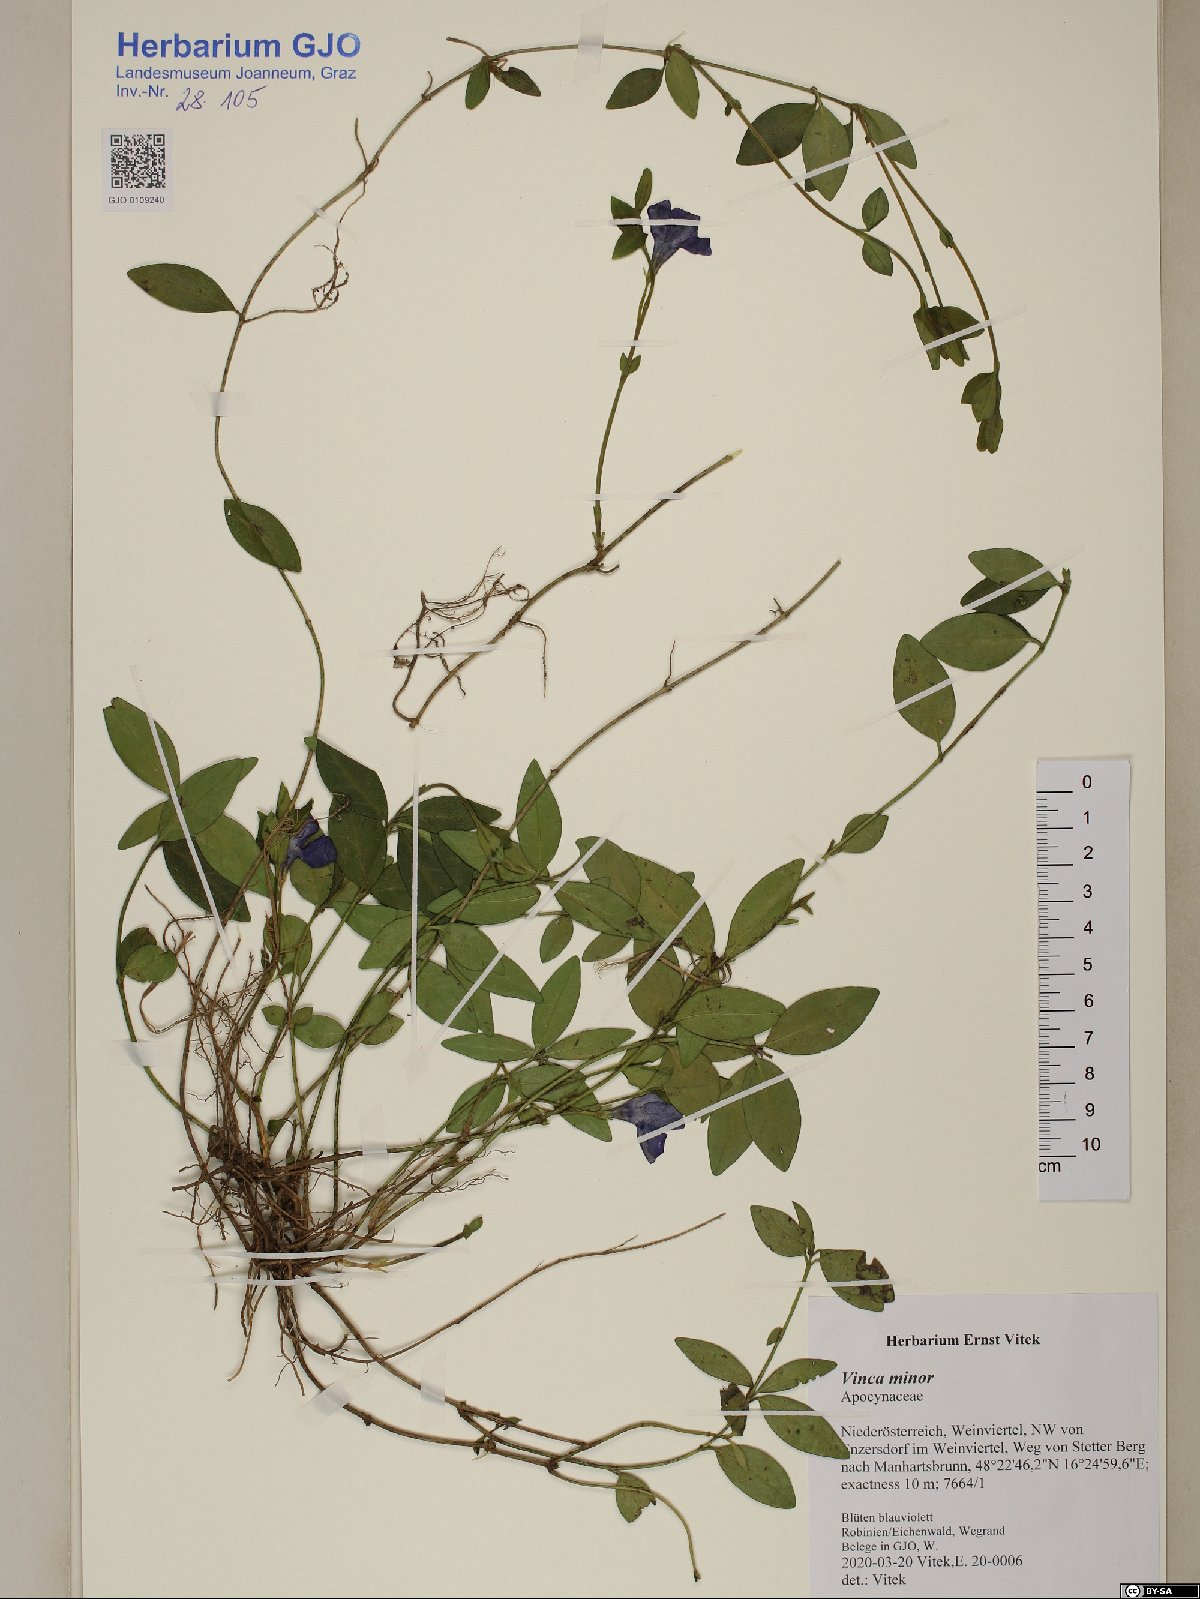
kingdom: Plantae
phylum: Tracheophyta
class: Magnoliopsida
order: Gentianales
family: Apocynaceae
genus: Vinca
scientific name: Vinca minor
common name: Lesser periwinkle
